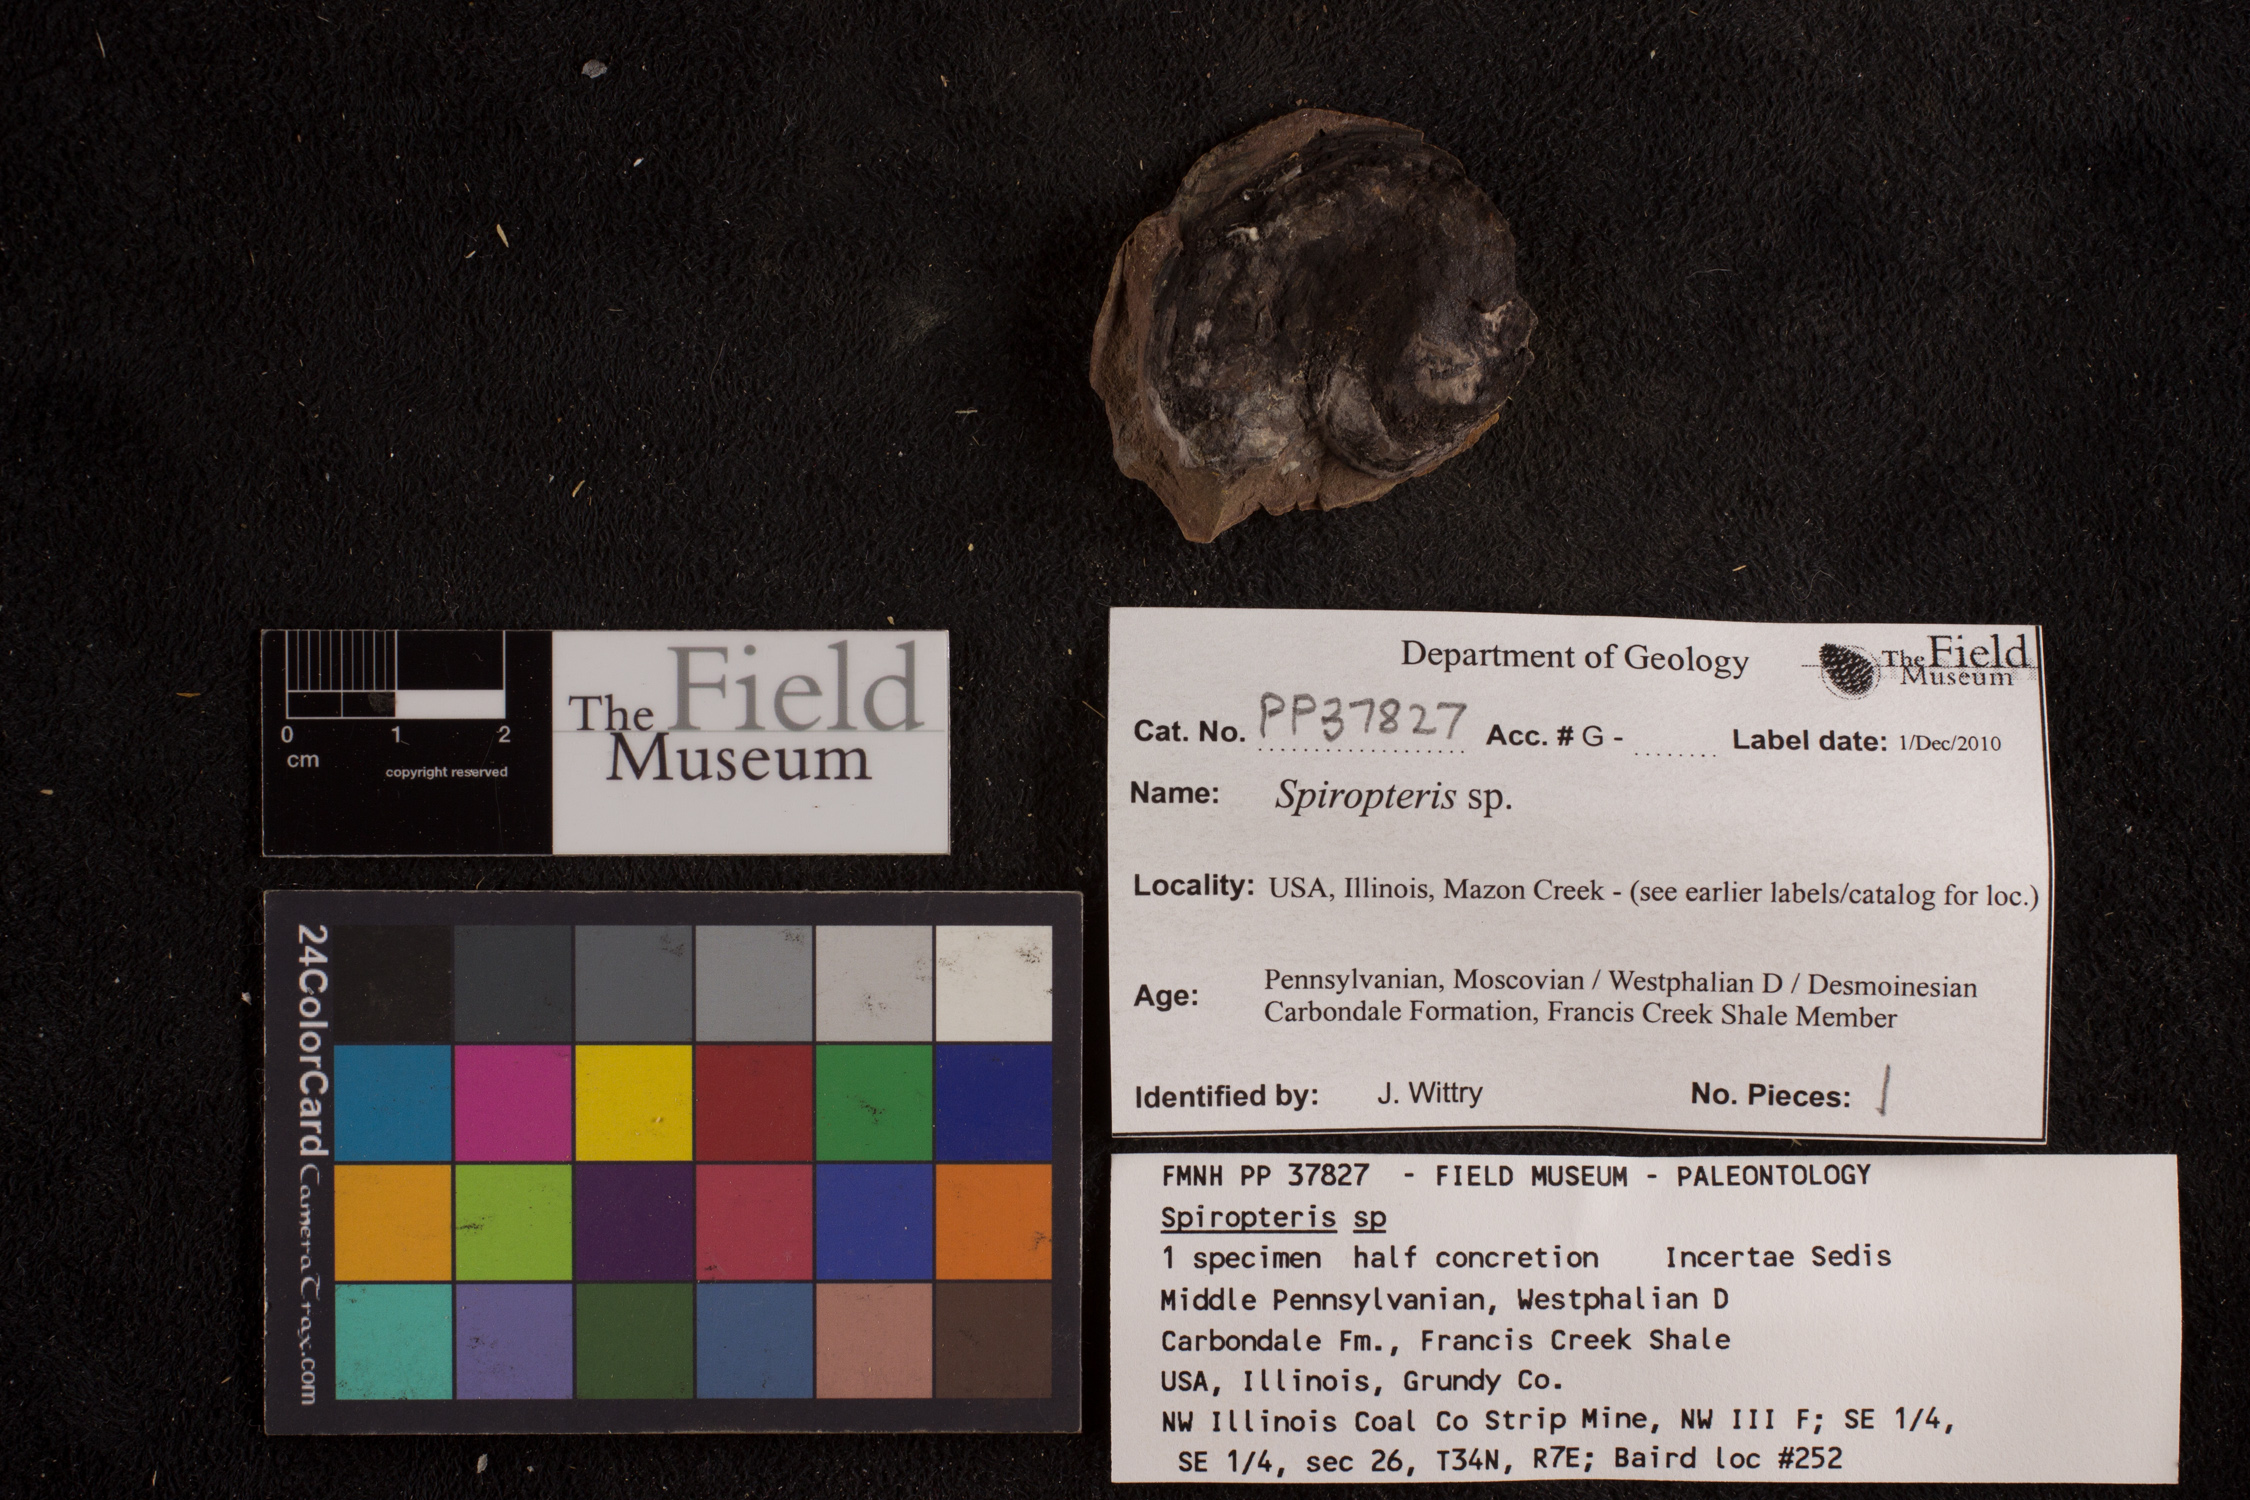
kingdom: Plantae
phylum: Tracheophyta
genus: Spiropteris
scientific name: Spiropteris
